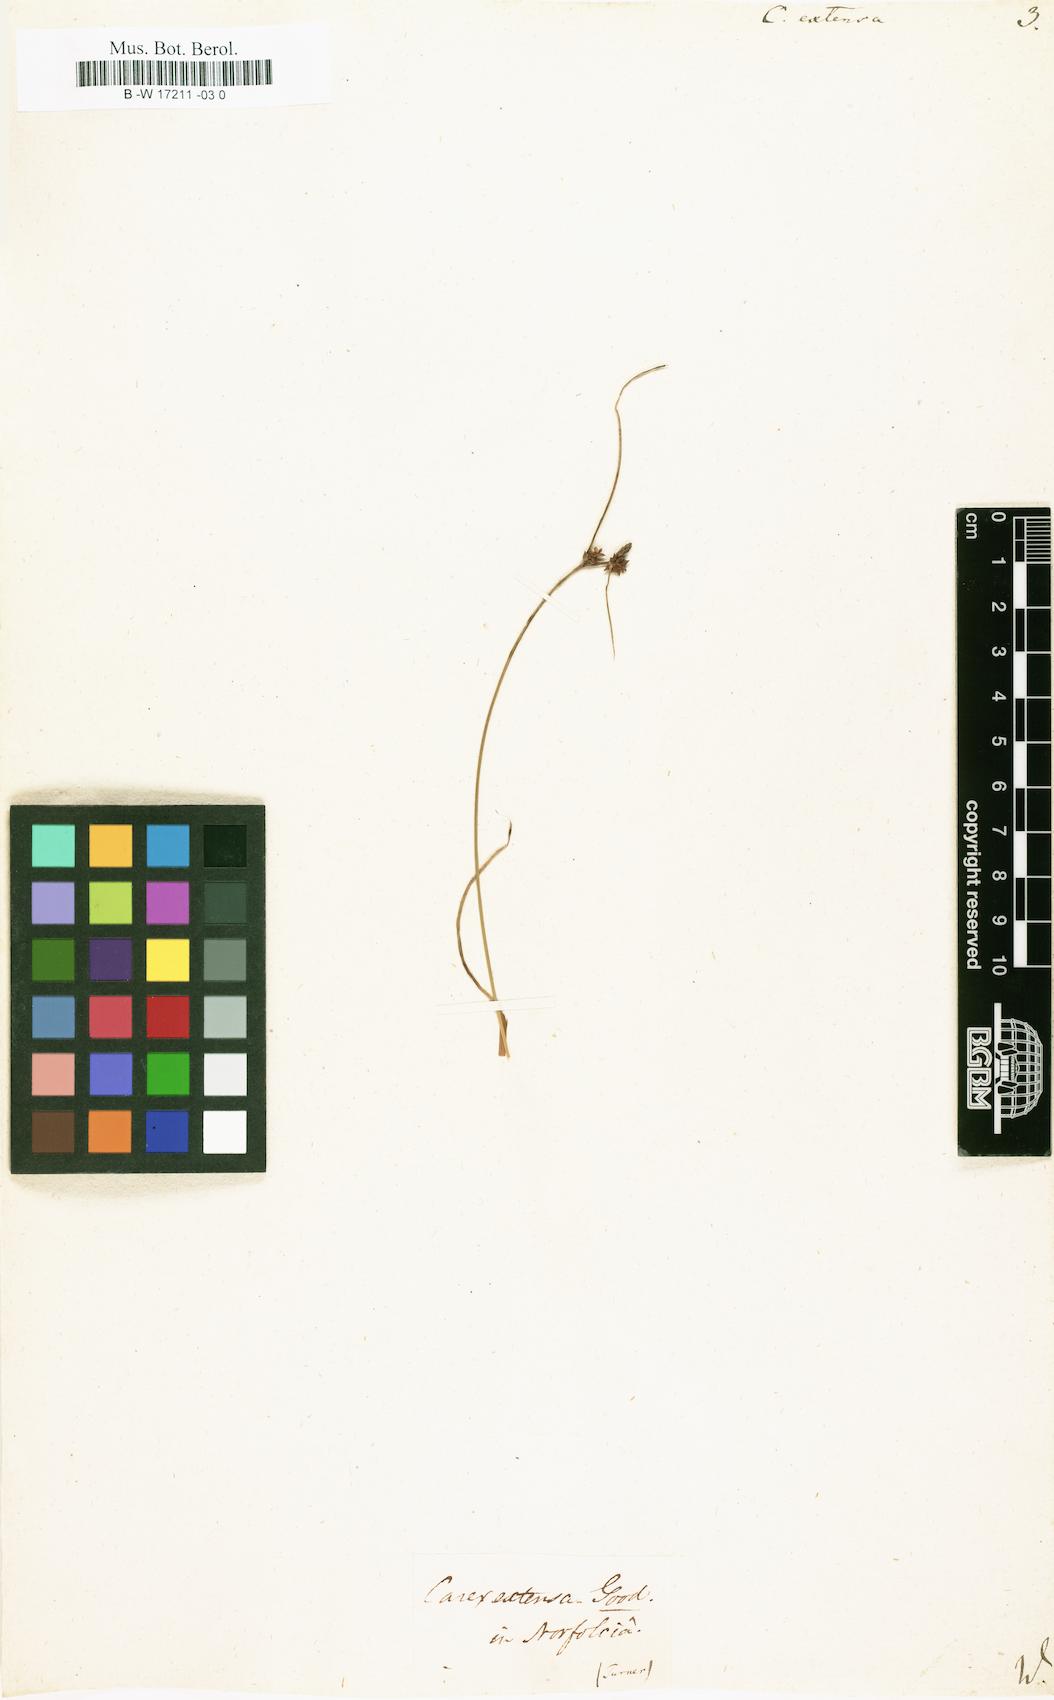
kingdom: Plantae
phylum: Tracheophyta
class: Liliopsida
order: Poales
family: Cyperaceae
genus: Carex
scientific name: Carex extensa
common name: Long-bracted sedge
